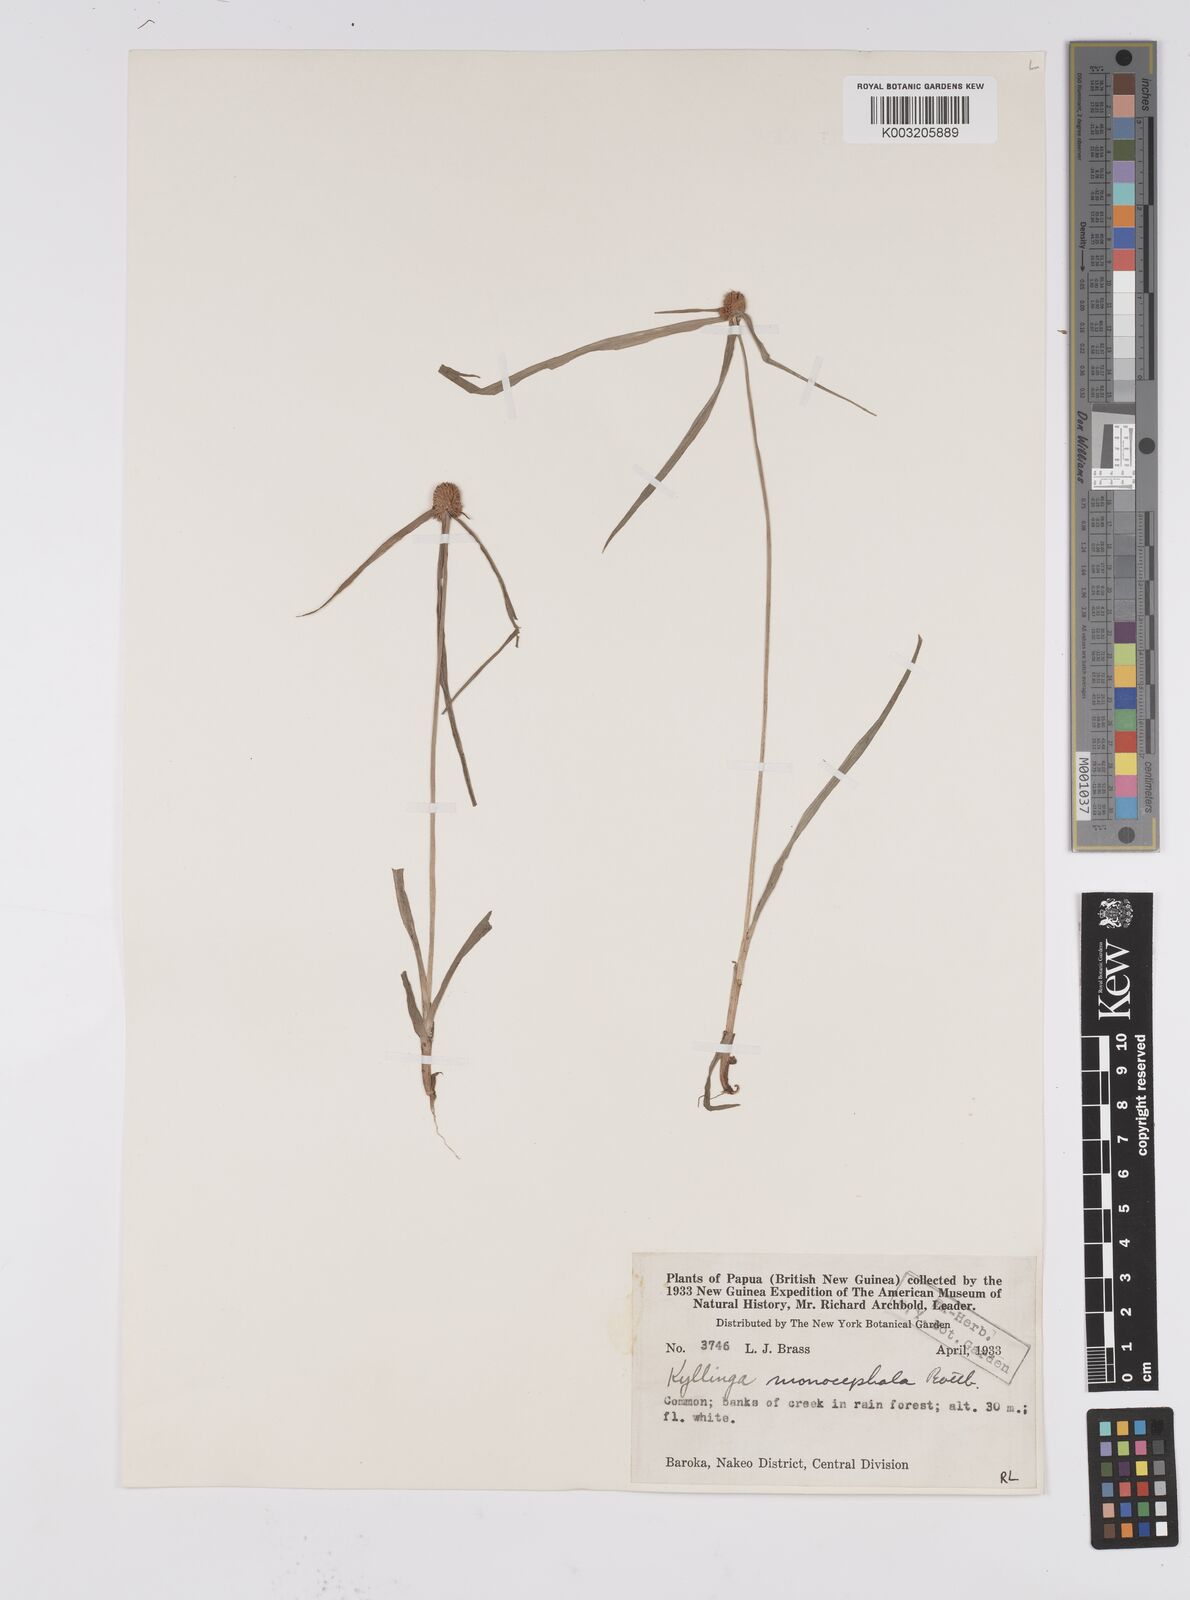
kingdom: Plantae
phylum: Tracheophyta
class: Liliopsida
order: Poales
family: Cyperaceae
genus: Cyperus
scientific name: Cyperus nemoralis
